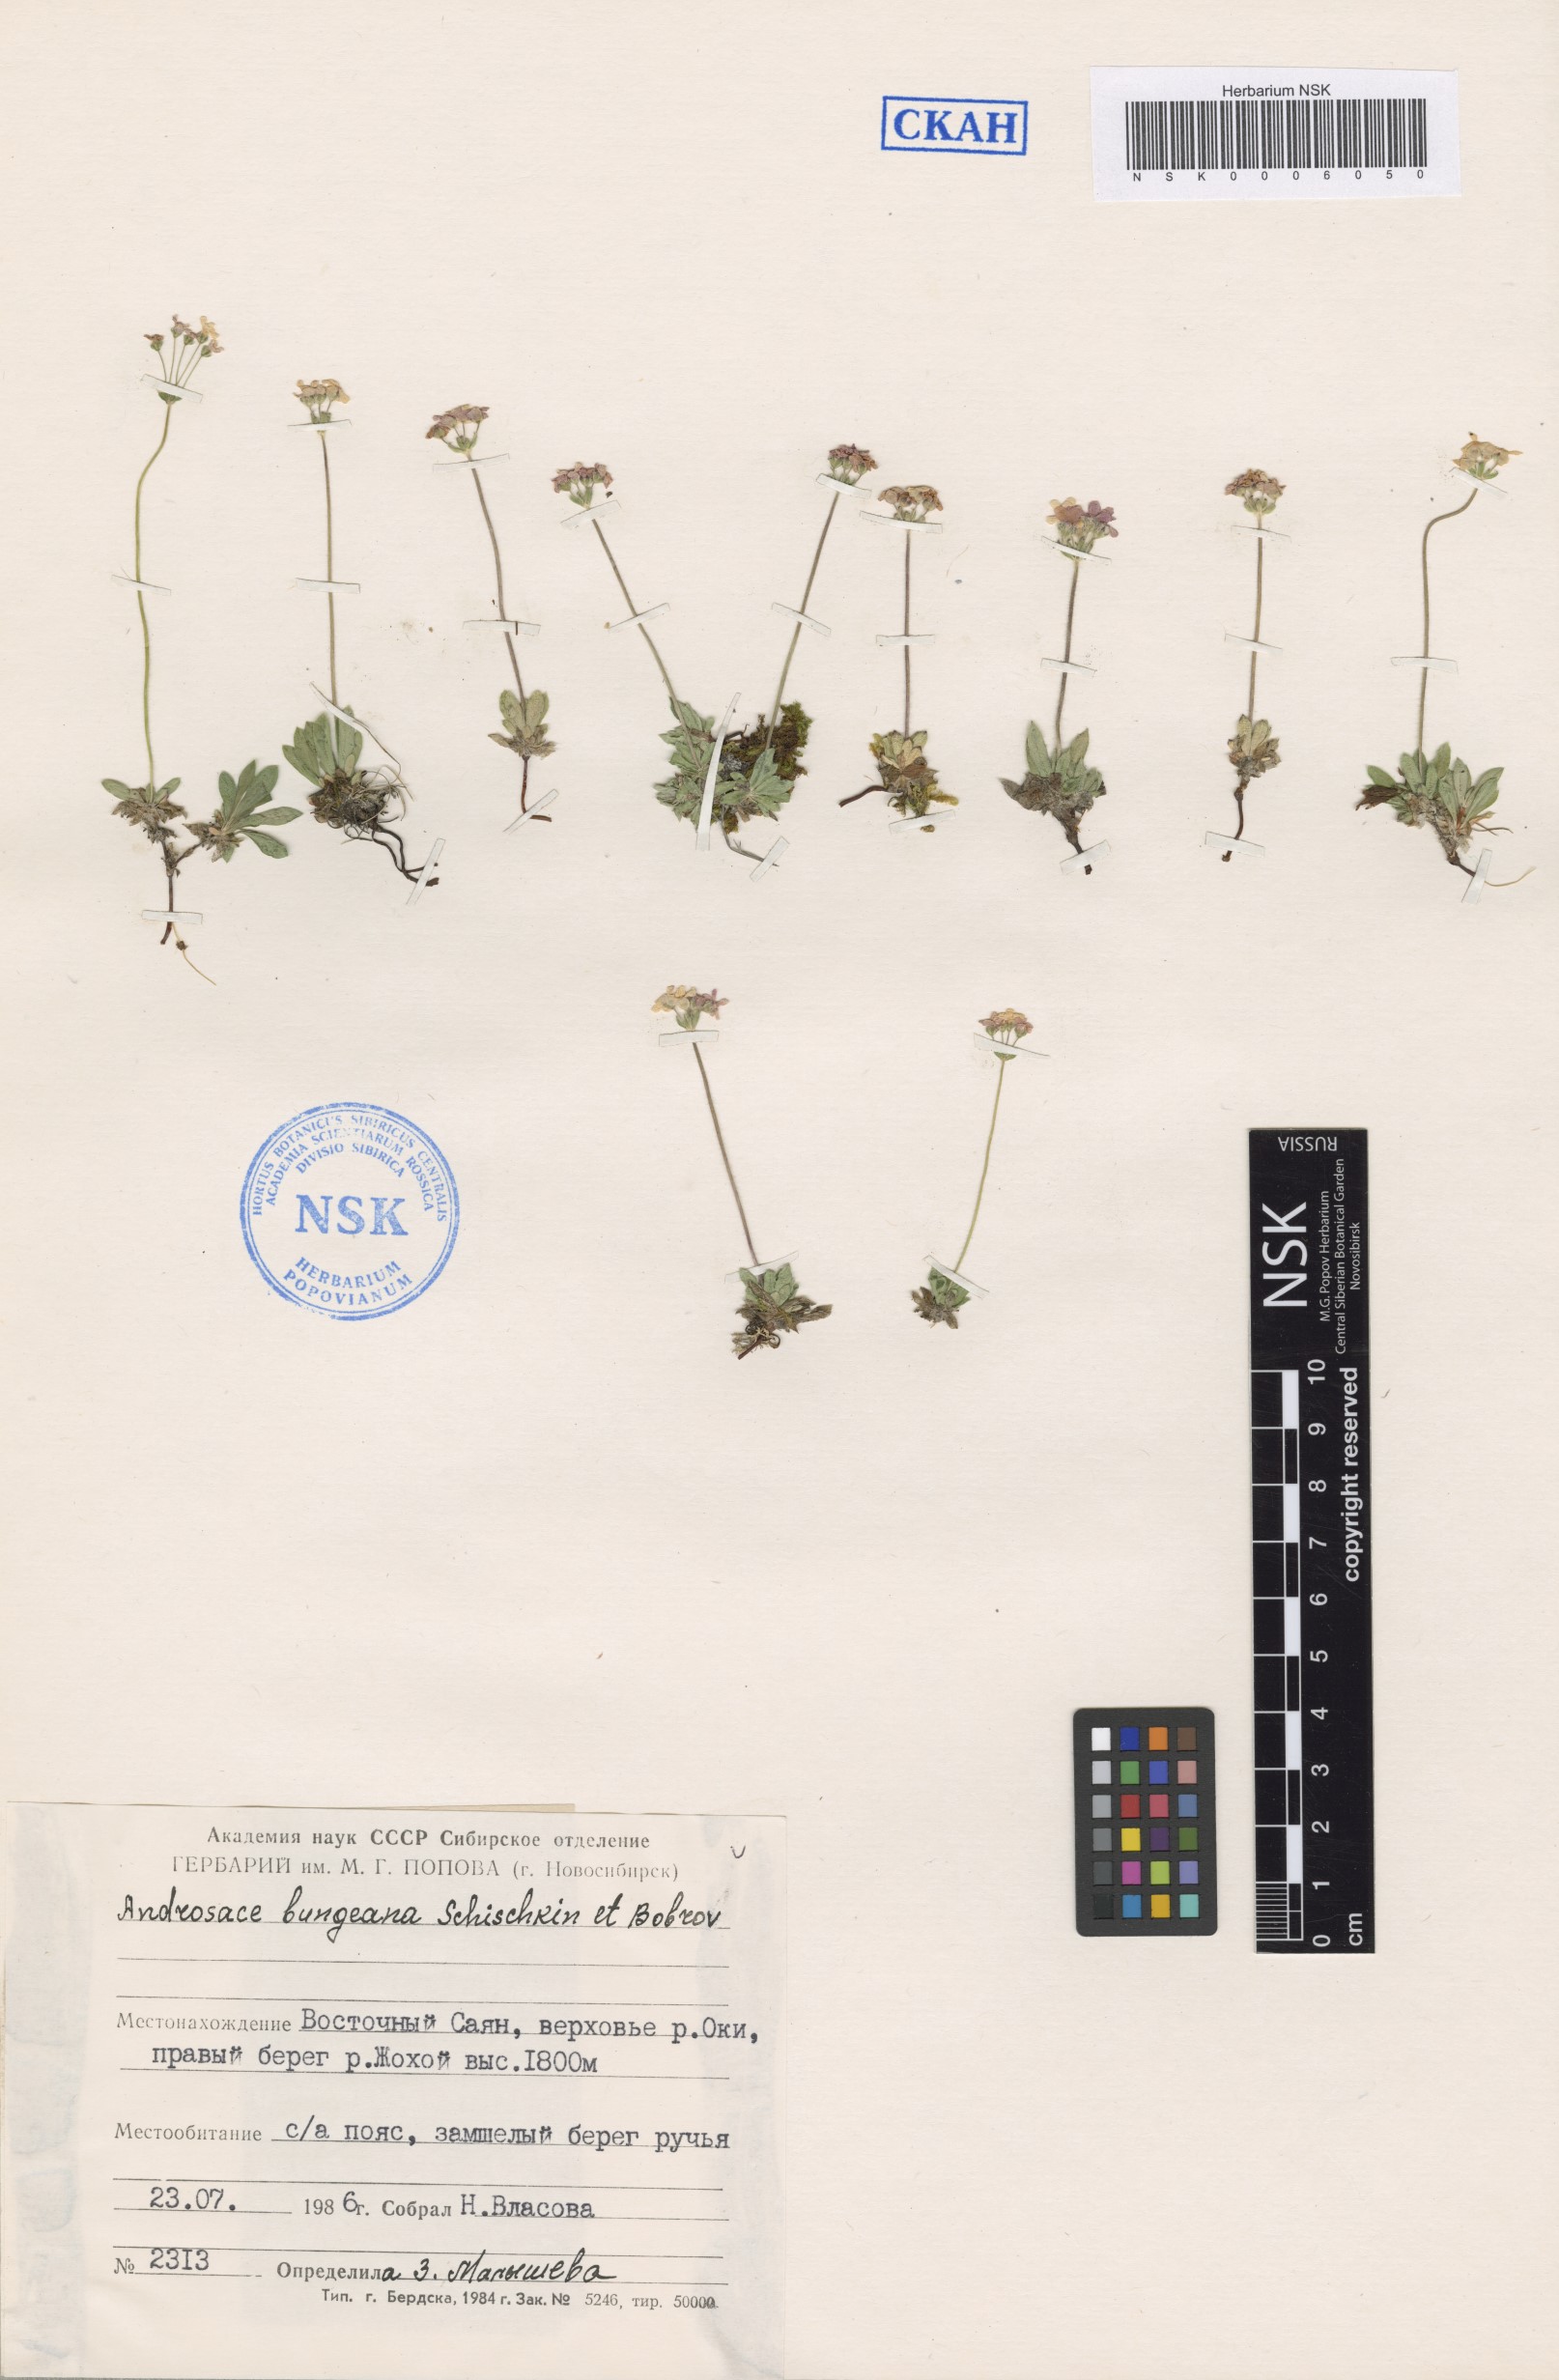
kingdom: Plantae
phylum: Tracheophyta
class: Magnoliopsida
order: Ericales
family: Primulaceae
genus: Androsace
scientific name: Androsace bungeana
